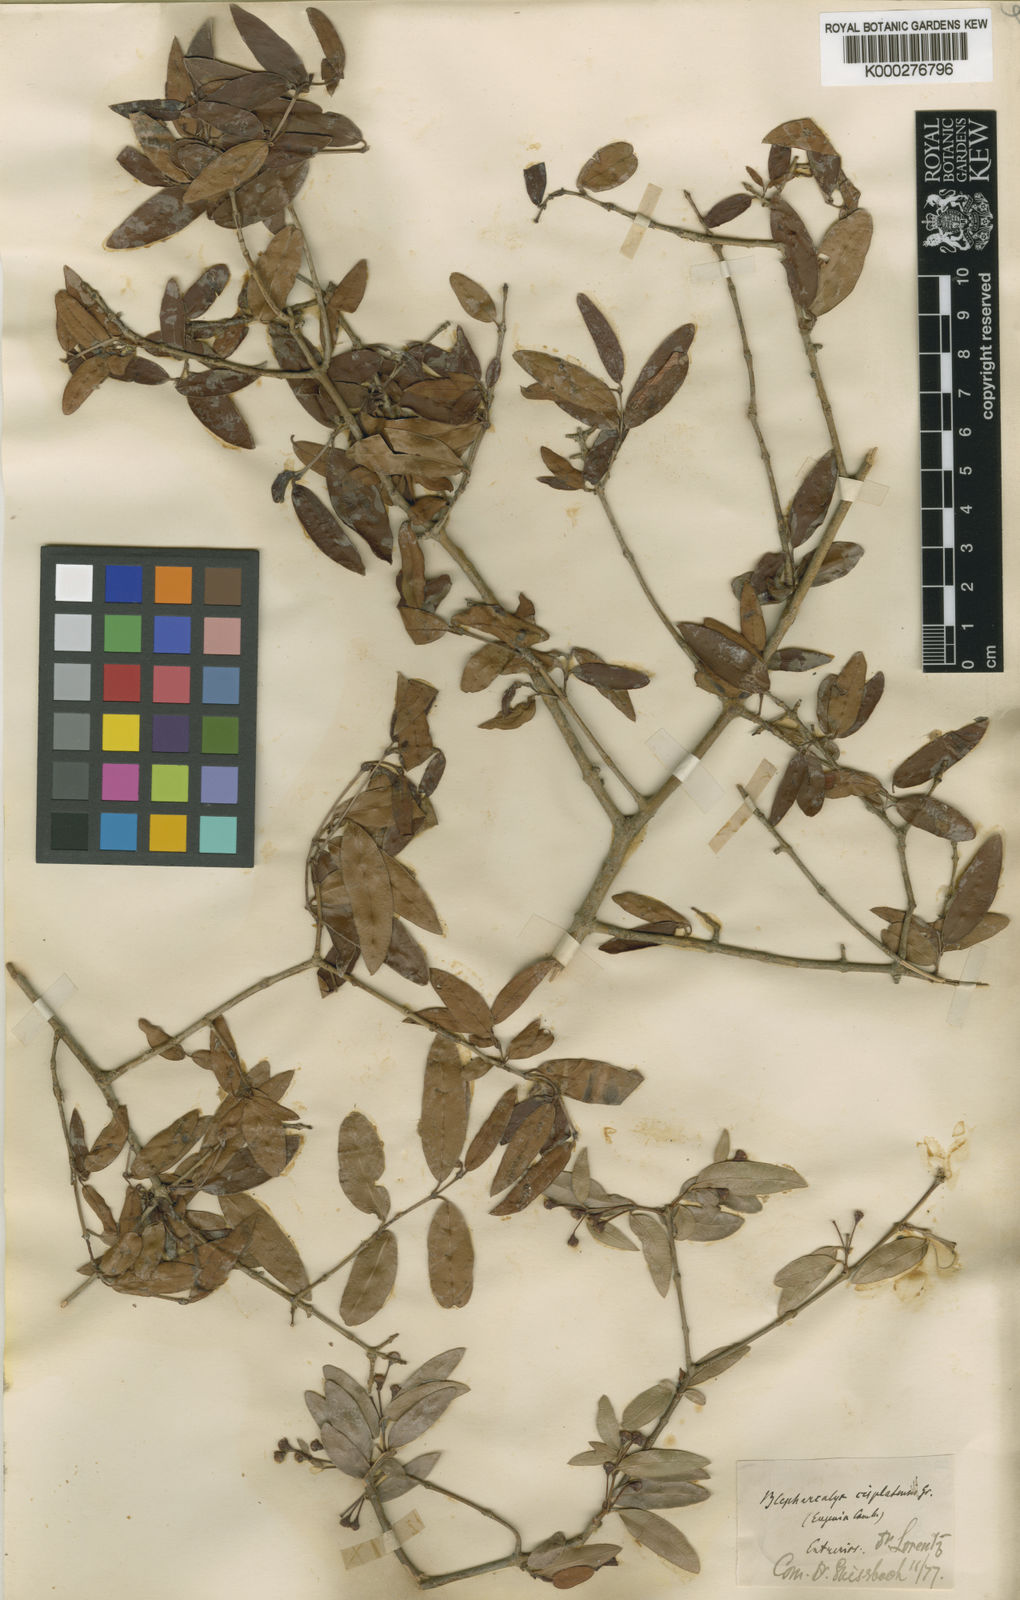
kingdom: Plantae
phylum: Tracheophyta
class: Magnoliopsida
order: Myrtales
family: Myrtaceae
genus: Myrcianthes
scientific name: Myrcianthes cisplatensis
